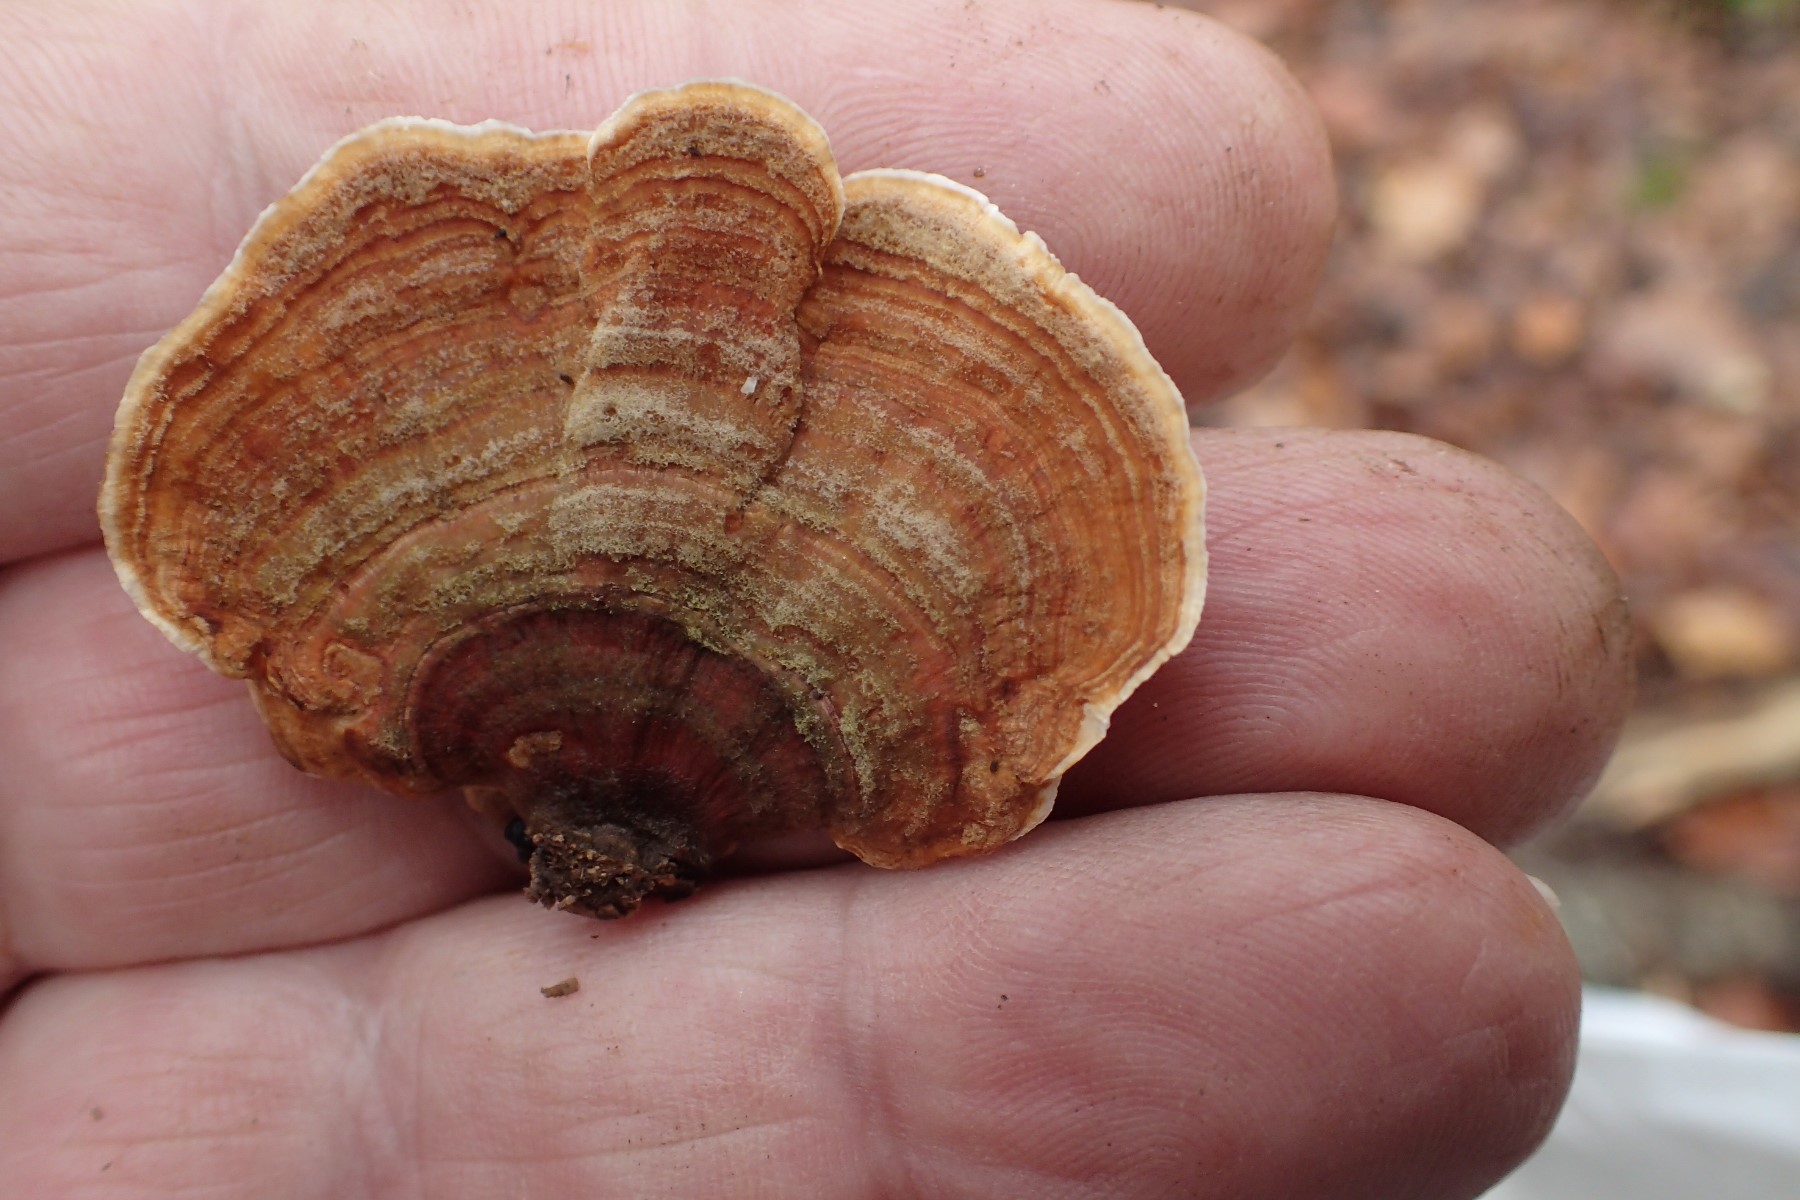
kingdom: Fungi
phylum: Basidiomycota
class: Agaricomycetes
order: Russulales
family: Stereaceae
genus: Stereum
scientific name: Stereum subtomentosum
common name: smuk lædersvamp
